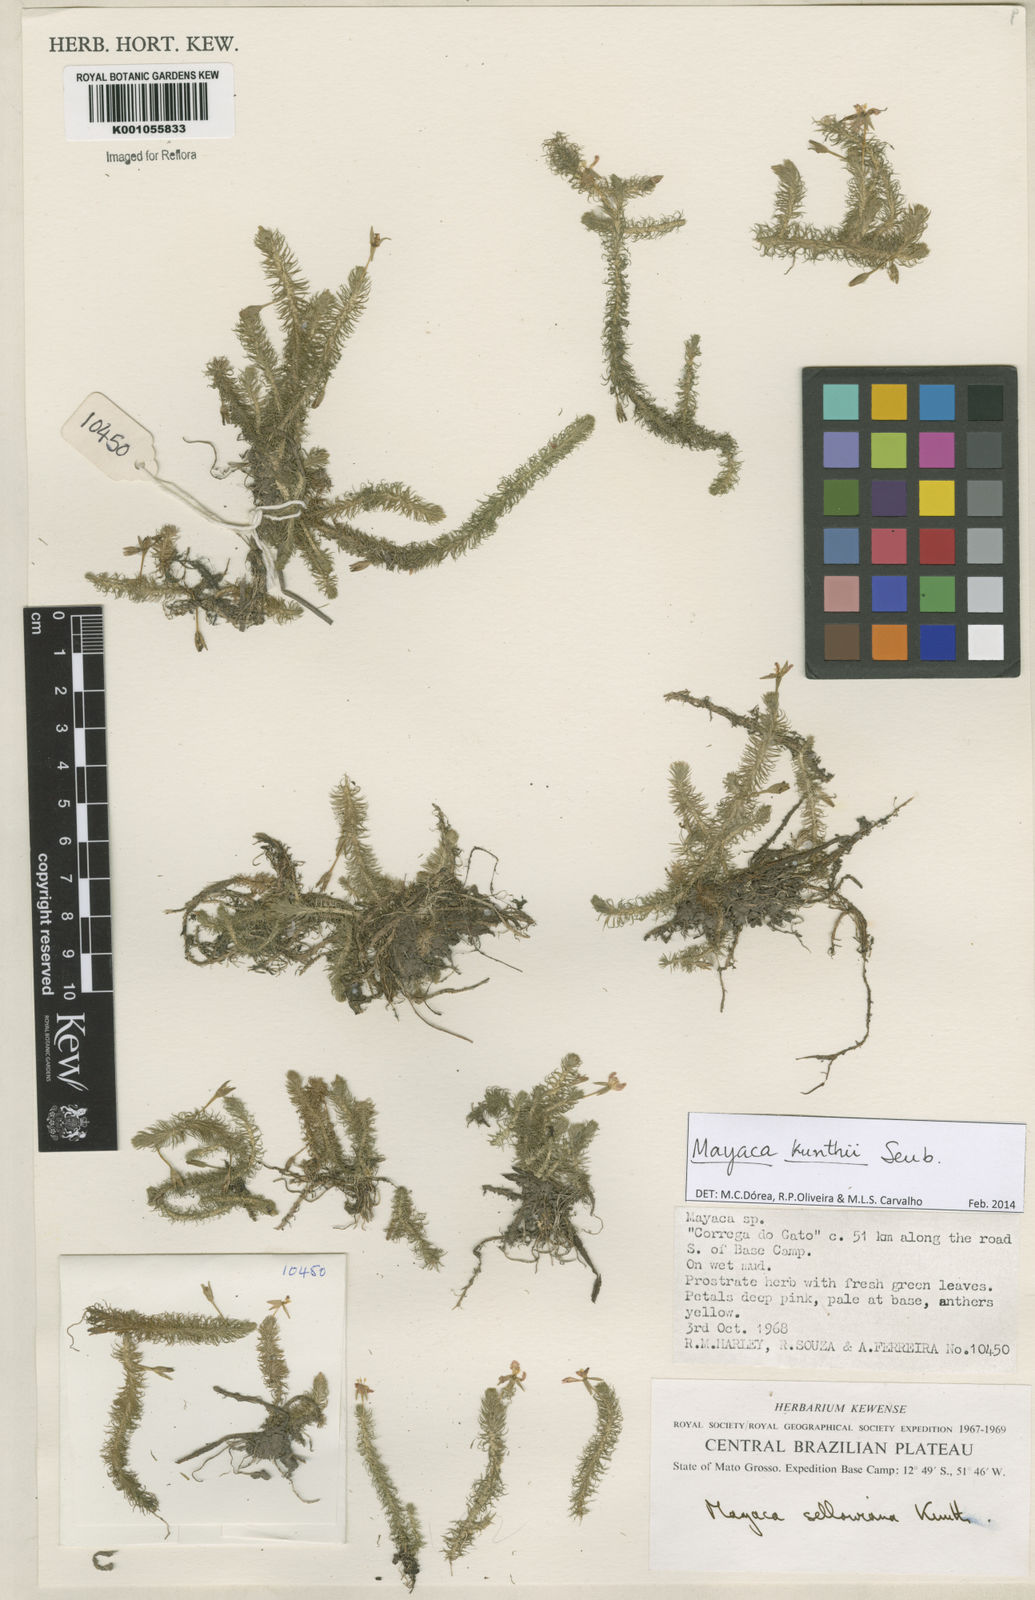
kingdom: Plantae
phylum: Tracheophyta
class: Liliopsida
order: Poales
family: Mayacaceae
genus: Mayaca
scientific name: Mayaca kunthii
